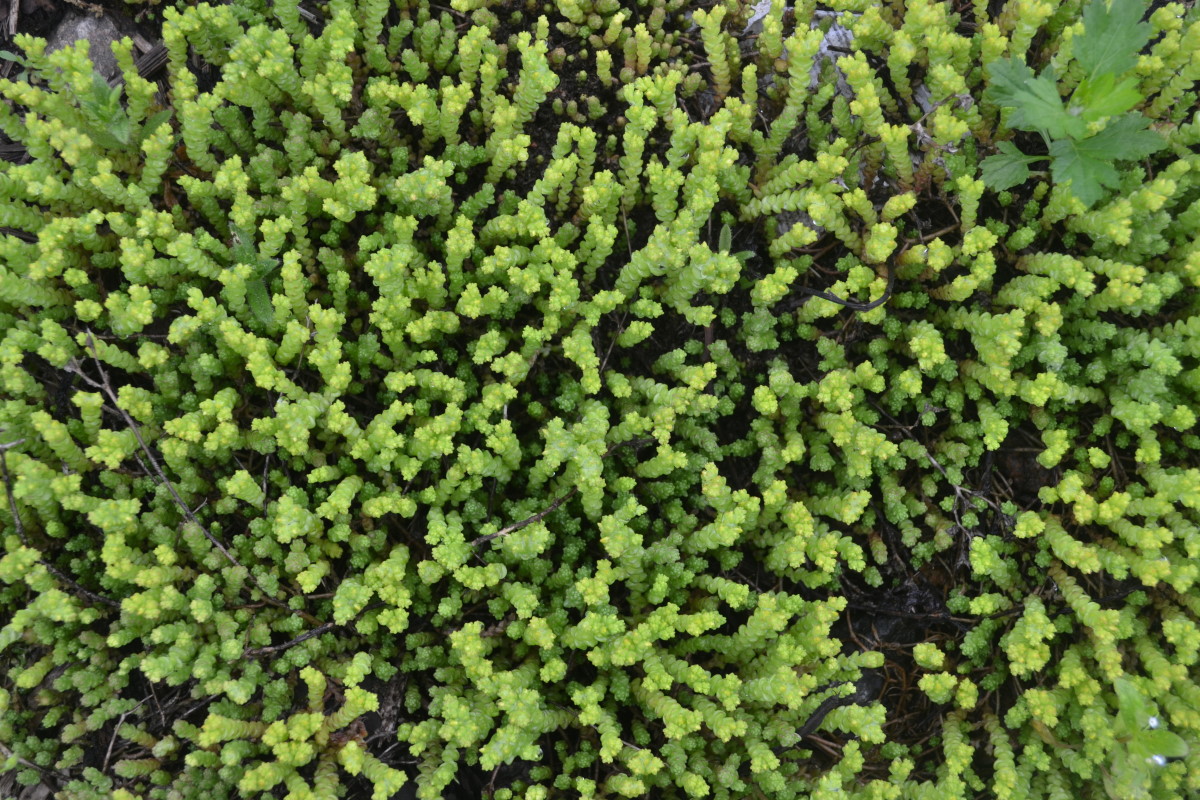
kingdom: Plantae
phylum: Tracheophyta
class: Magnoliopsida
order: Saxifragales
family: Crassulaceae
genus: Sedum
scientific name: Sedum acre
